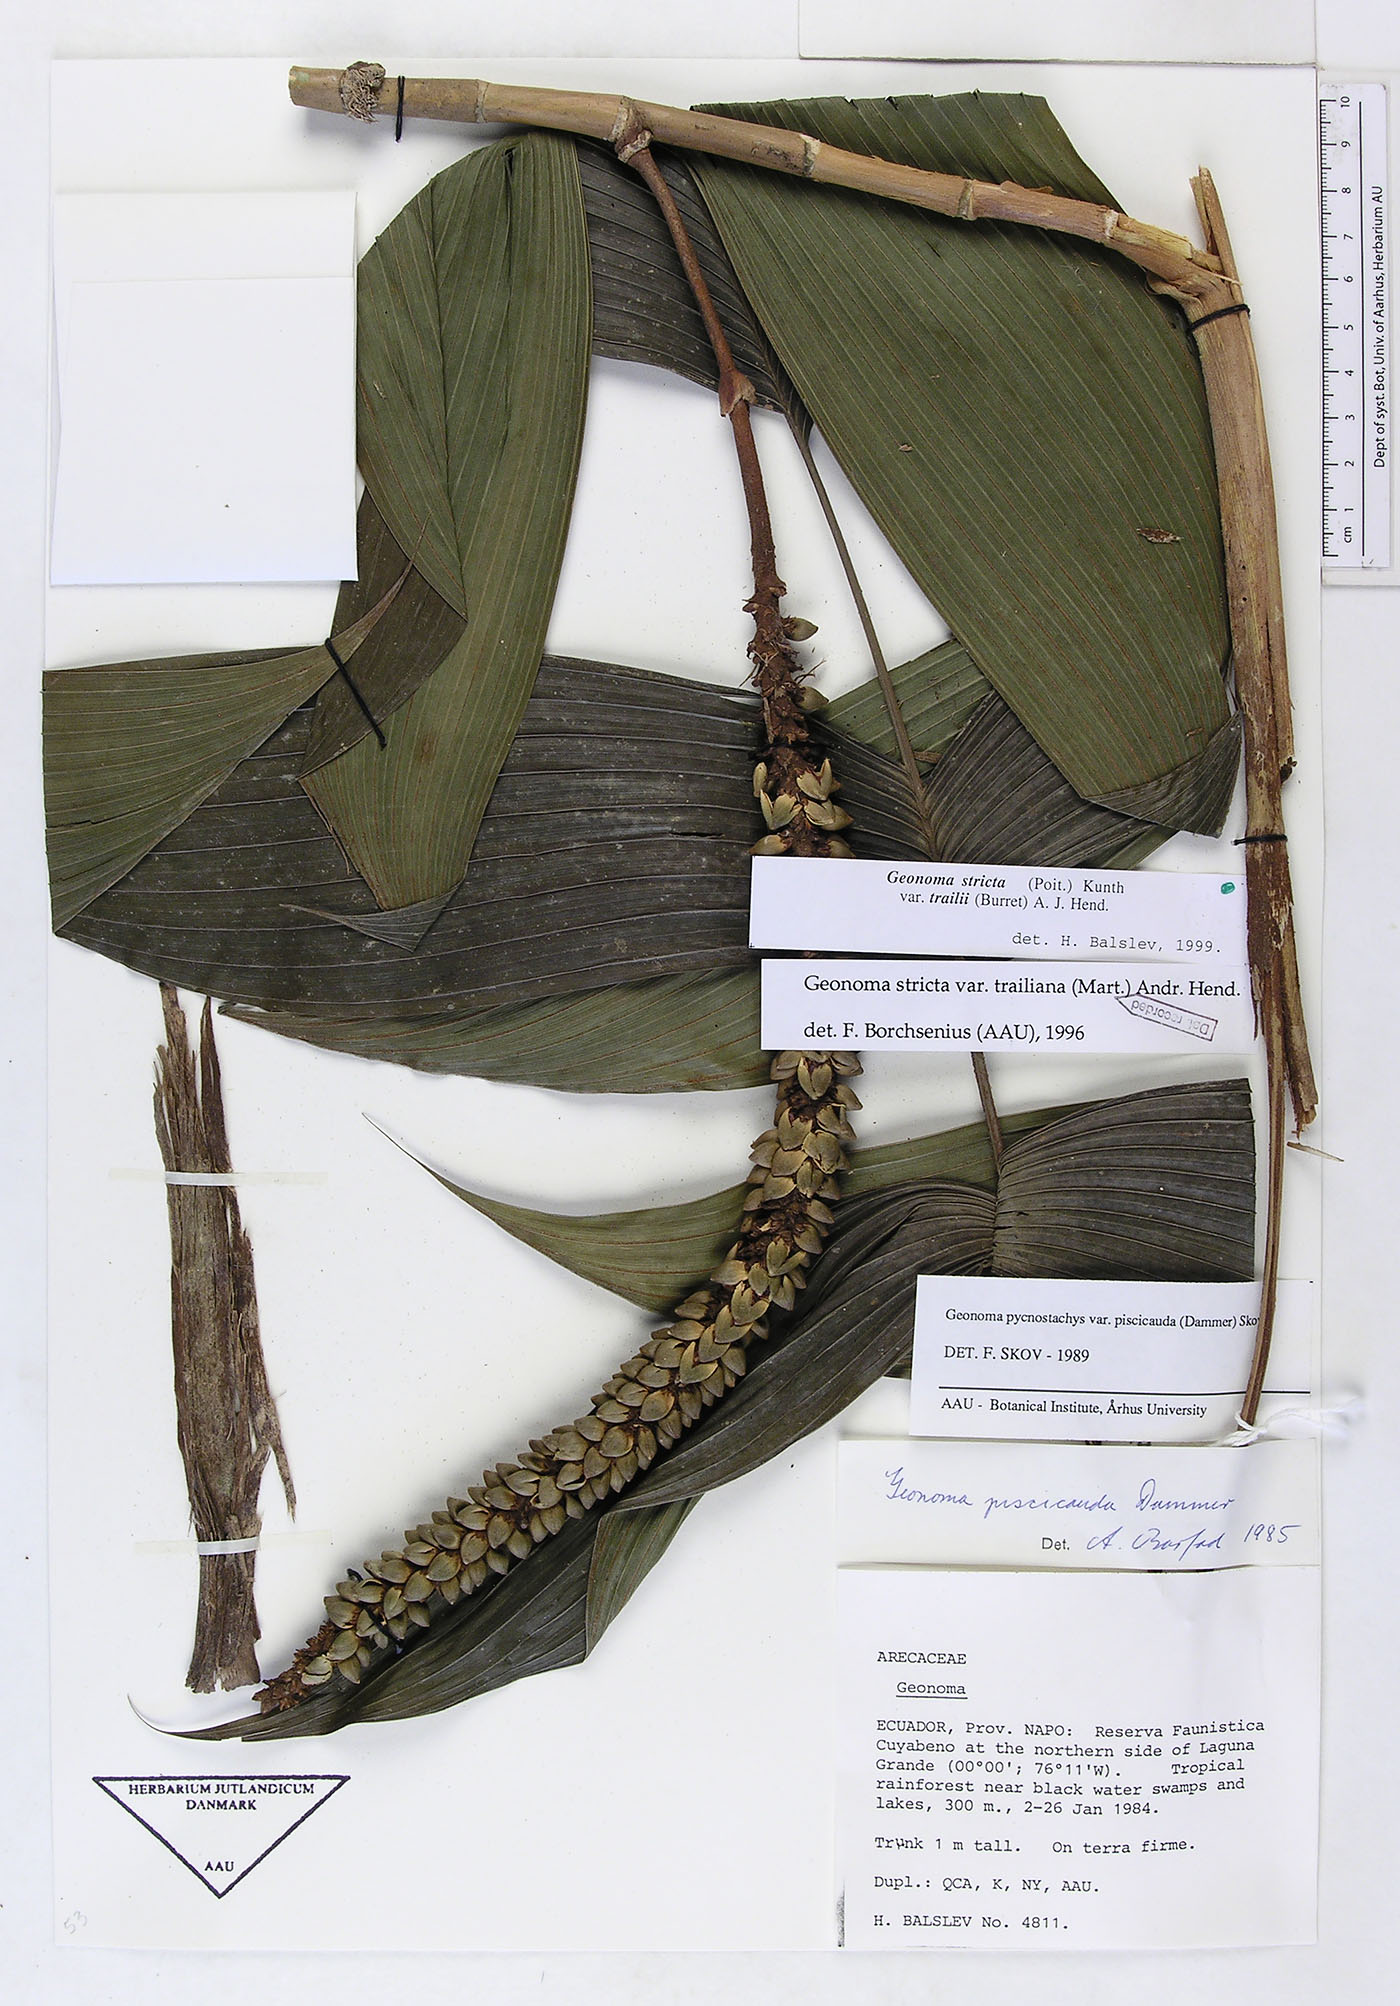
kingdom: Plantae
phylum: Tracheophyta
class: Liliopsida
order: Arecales
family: Arecaceae
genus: Geonoma
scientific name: Geonoma stricta
